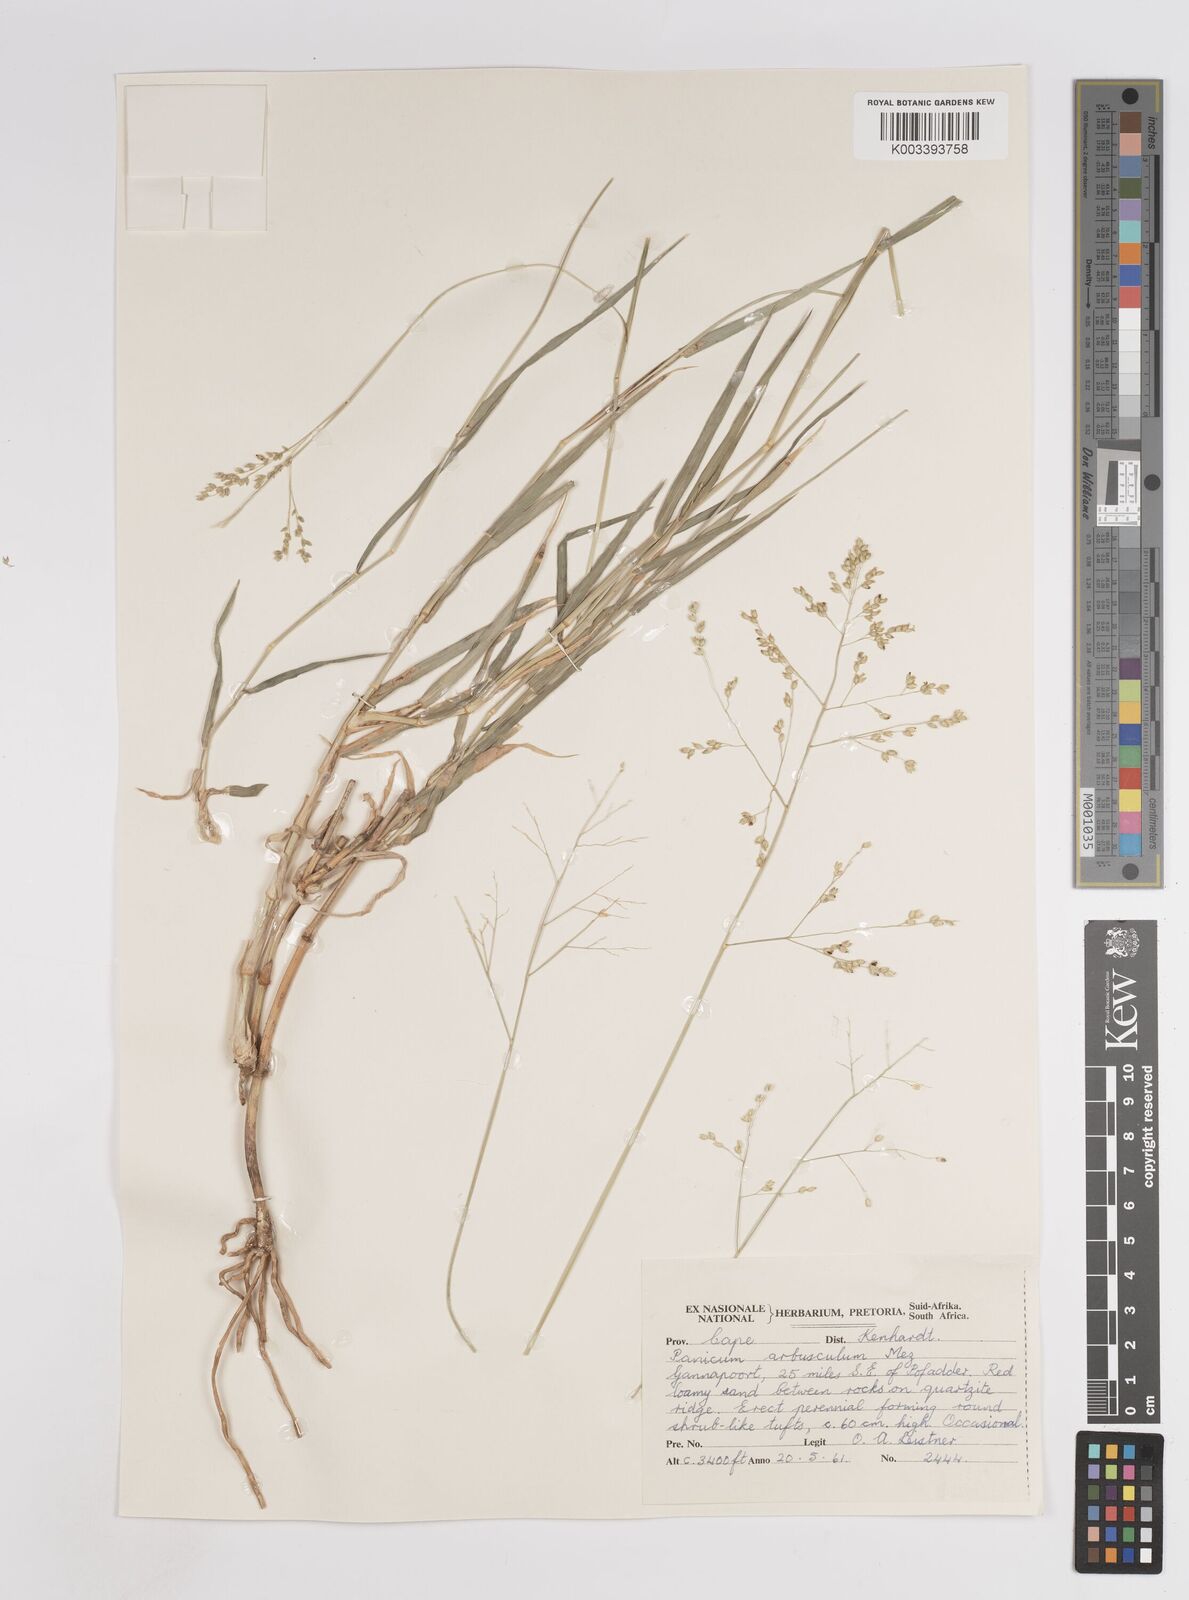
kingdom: Plantae
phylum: Tracheophyta
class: Liliopsida
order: Poales
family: Poaceae
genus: Isachne
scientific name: Isachne rigens
